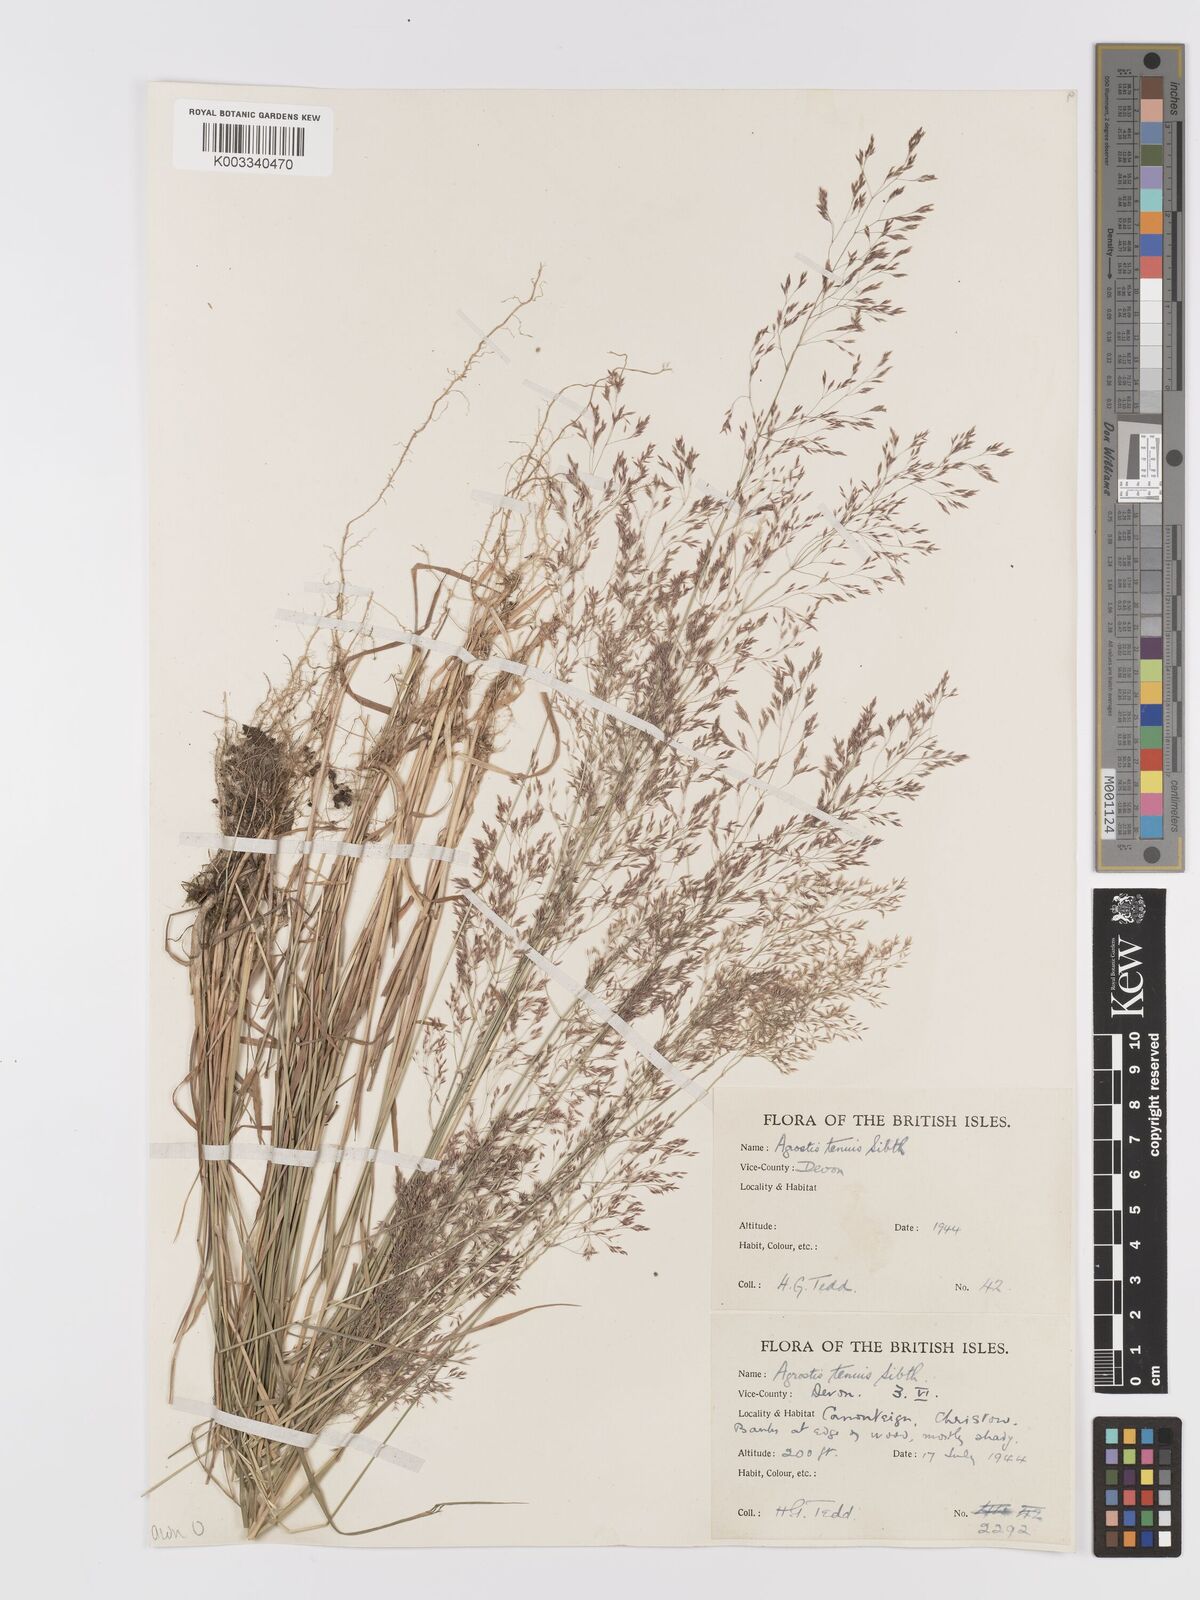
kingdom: Plantae
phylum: Tracheophyta
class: Liliopsida
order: Poales
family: Poaceae
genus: Agrostis
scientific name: Agrostis capillaris
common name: Colonial bentgrass
